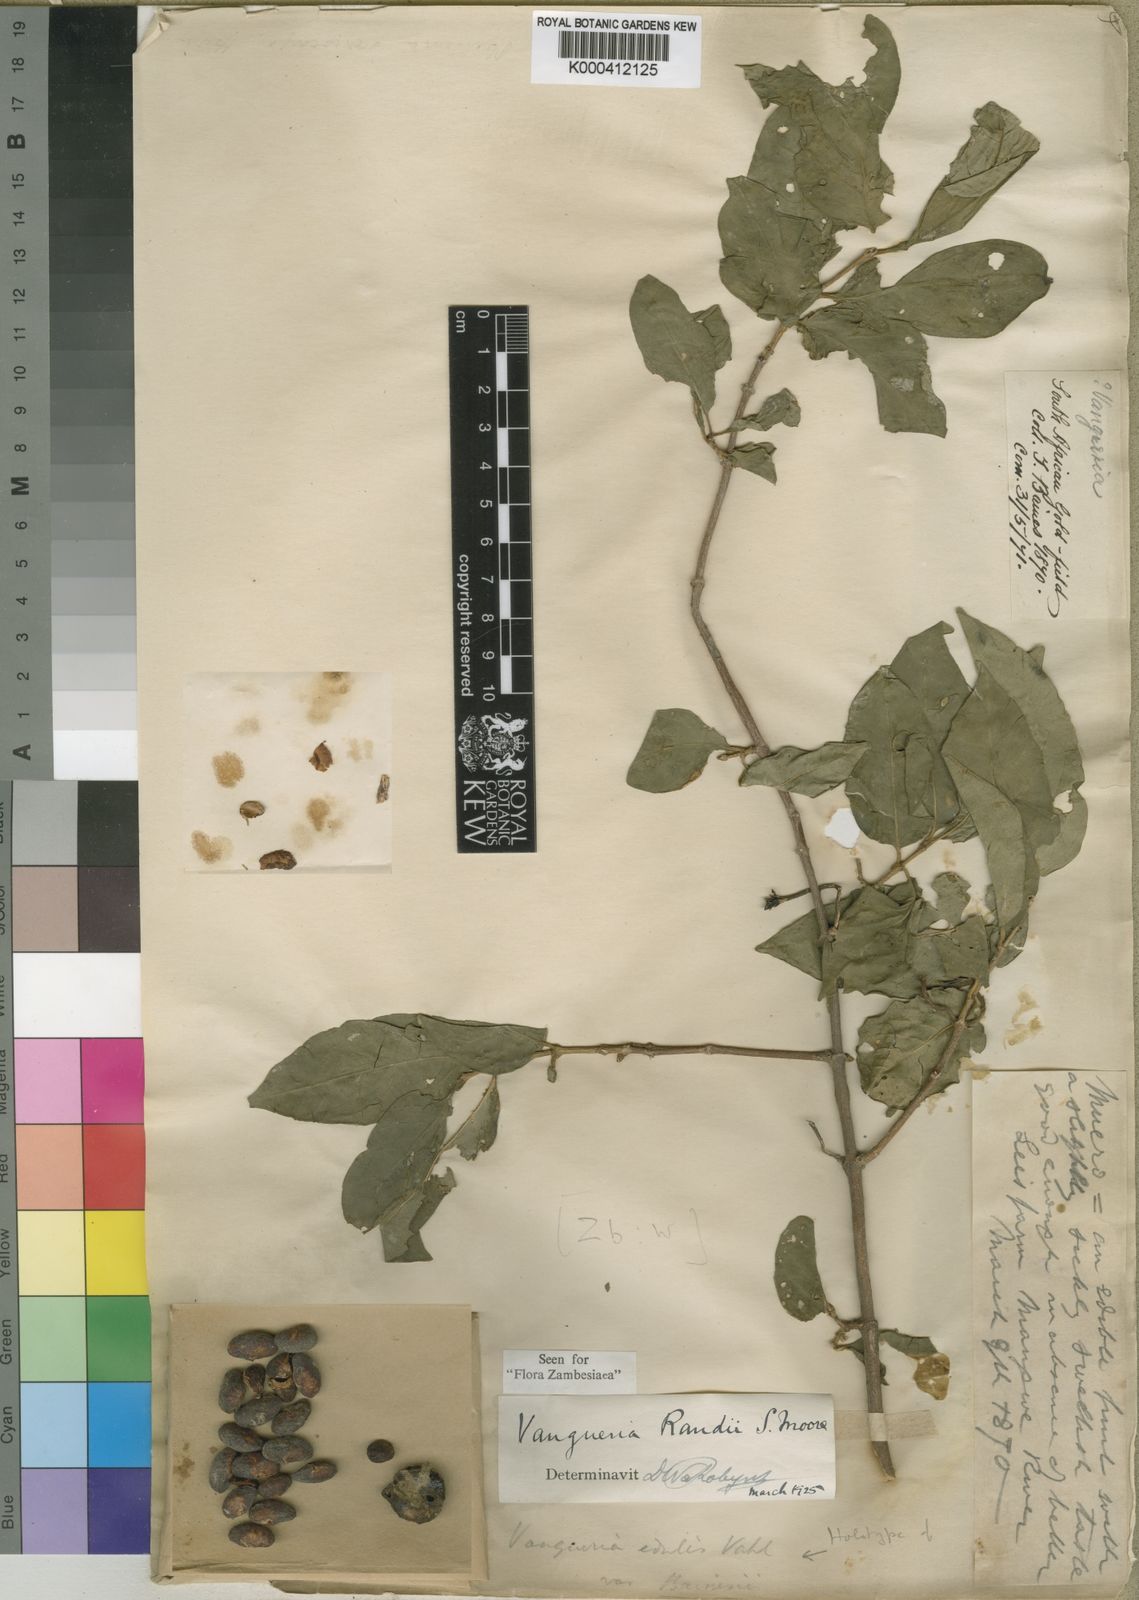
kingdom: Plantae
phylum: Tracheophyta
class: Magnoliopsida
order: Gentianales
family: Rubiaceae
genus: Vangueria
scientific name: Vangueria randii
